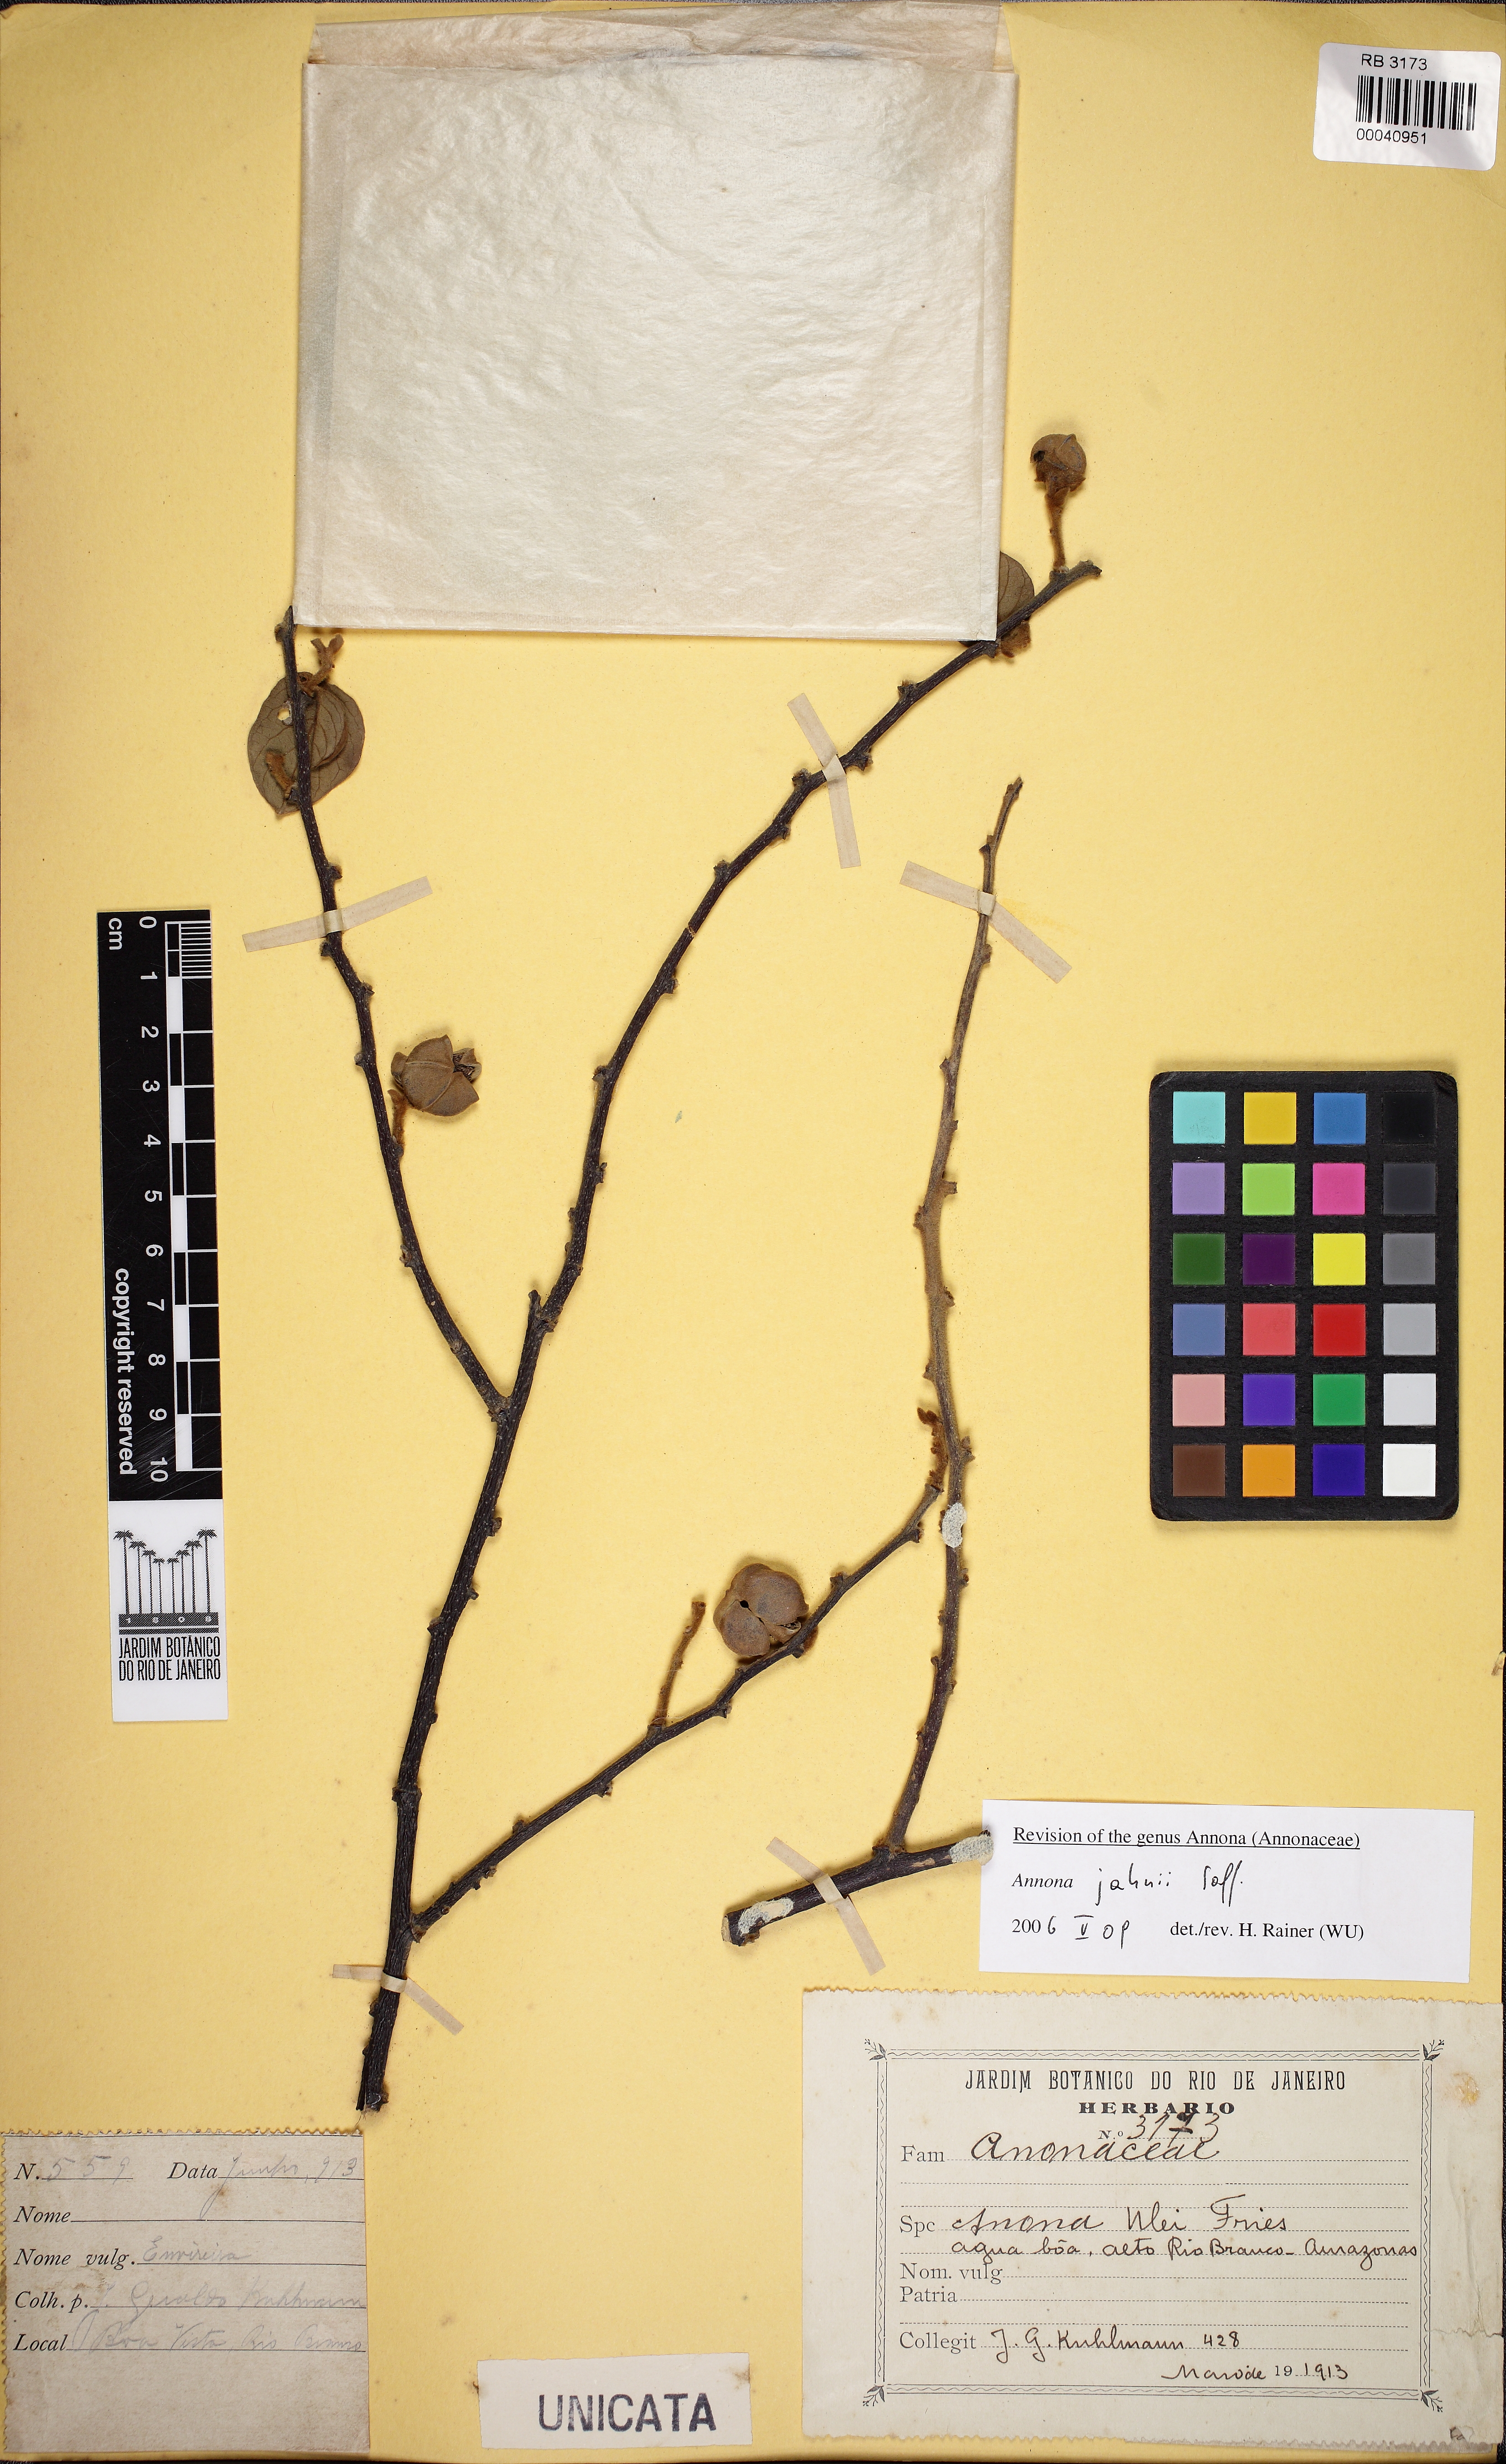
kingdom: Plantae
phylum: Tracheophyta
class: Magnoliopsida
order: Magnoliales
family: Annonaceae
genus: Annona
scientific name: Annona jahnii
